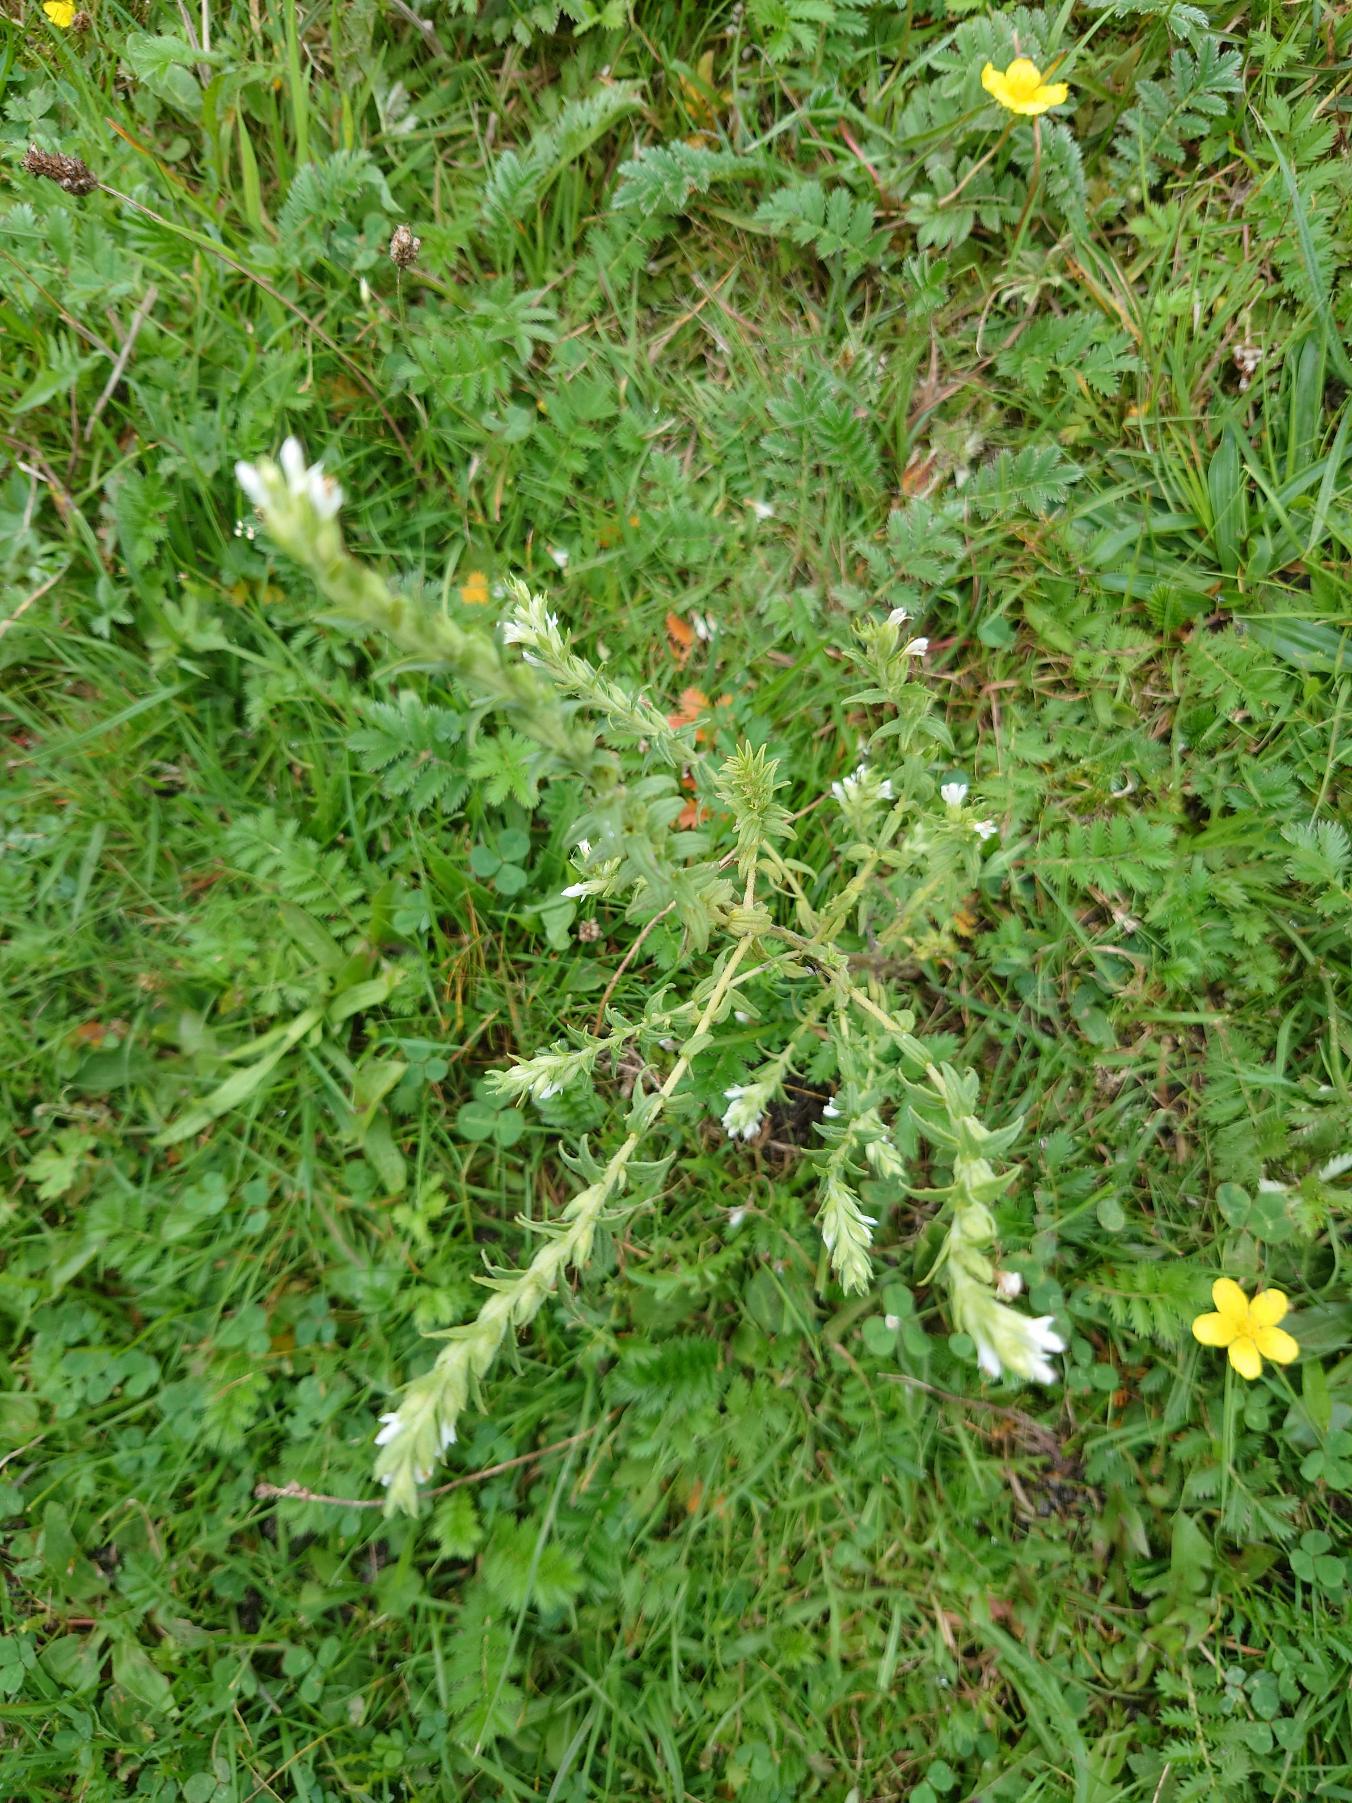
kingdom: Plantae
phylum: Tracheophyta
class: Magnoliopsida
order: Lamiales
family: Orobanchaceae
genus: Odontites
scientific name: Odontites vulgaris
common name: Høst-rødtop
